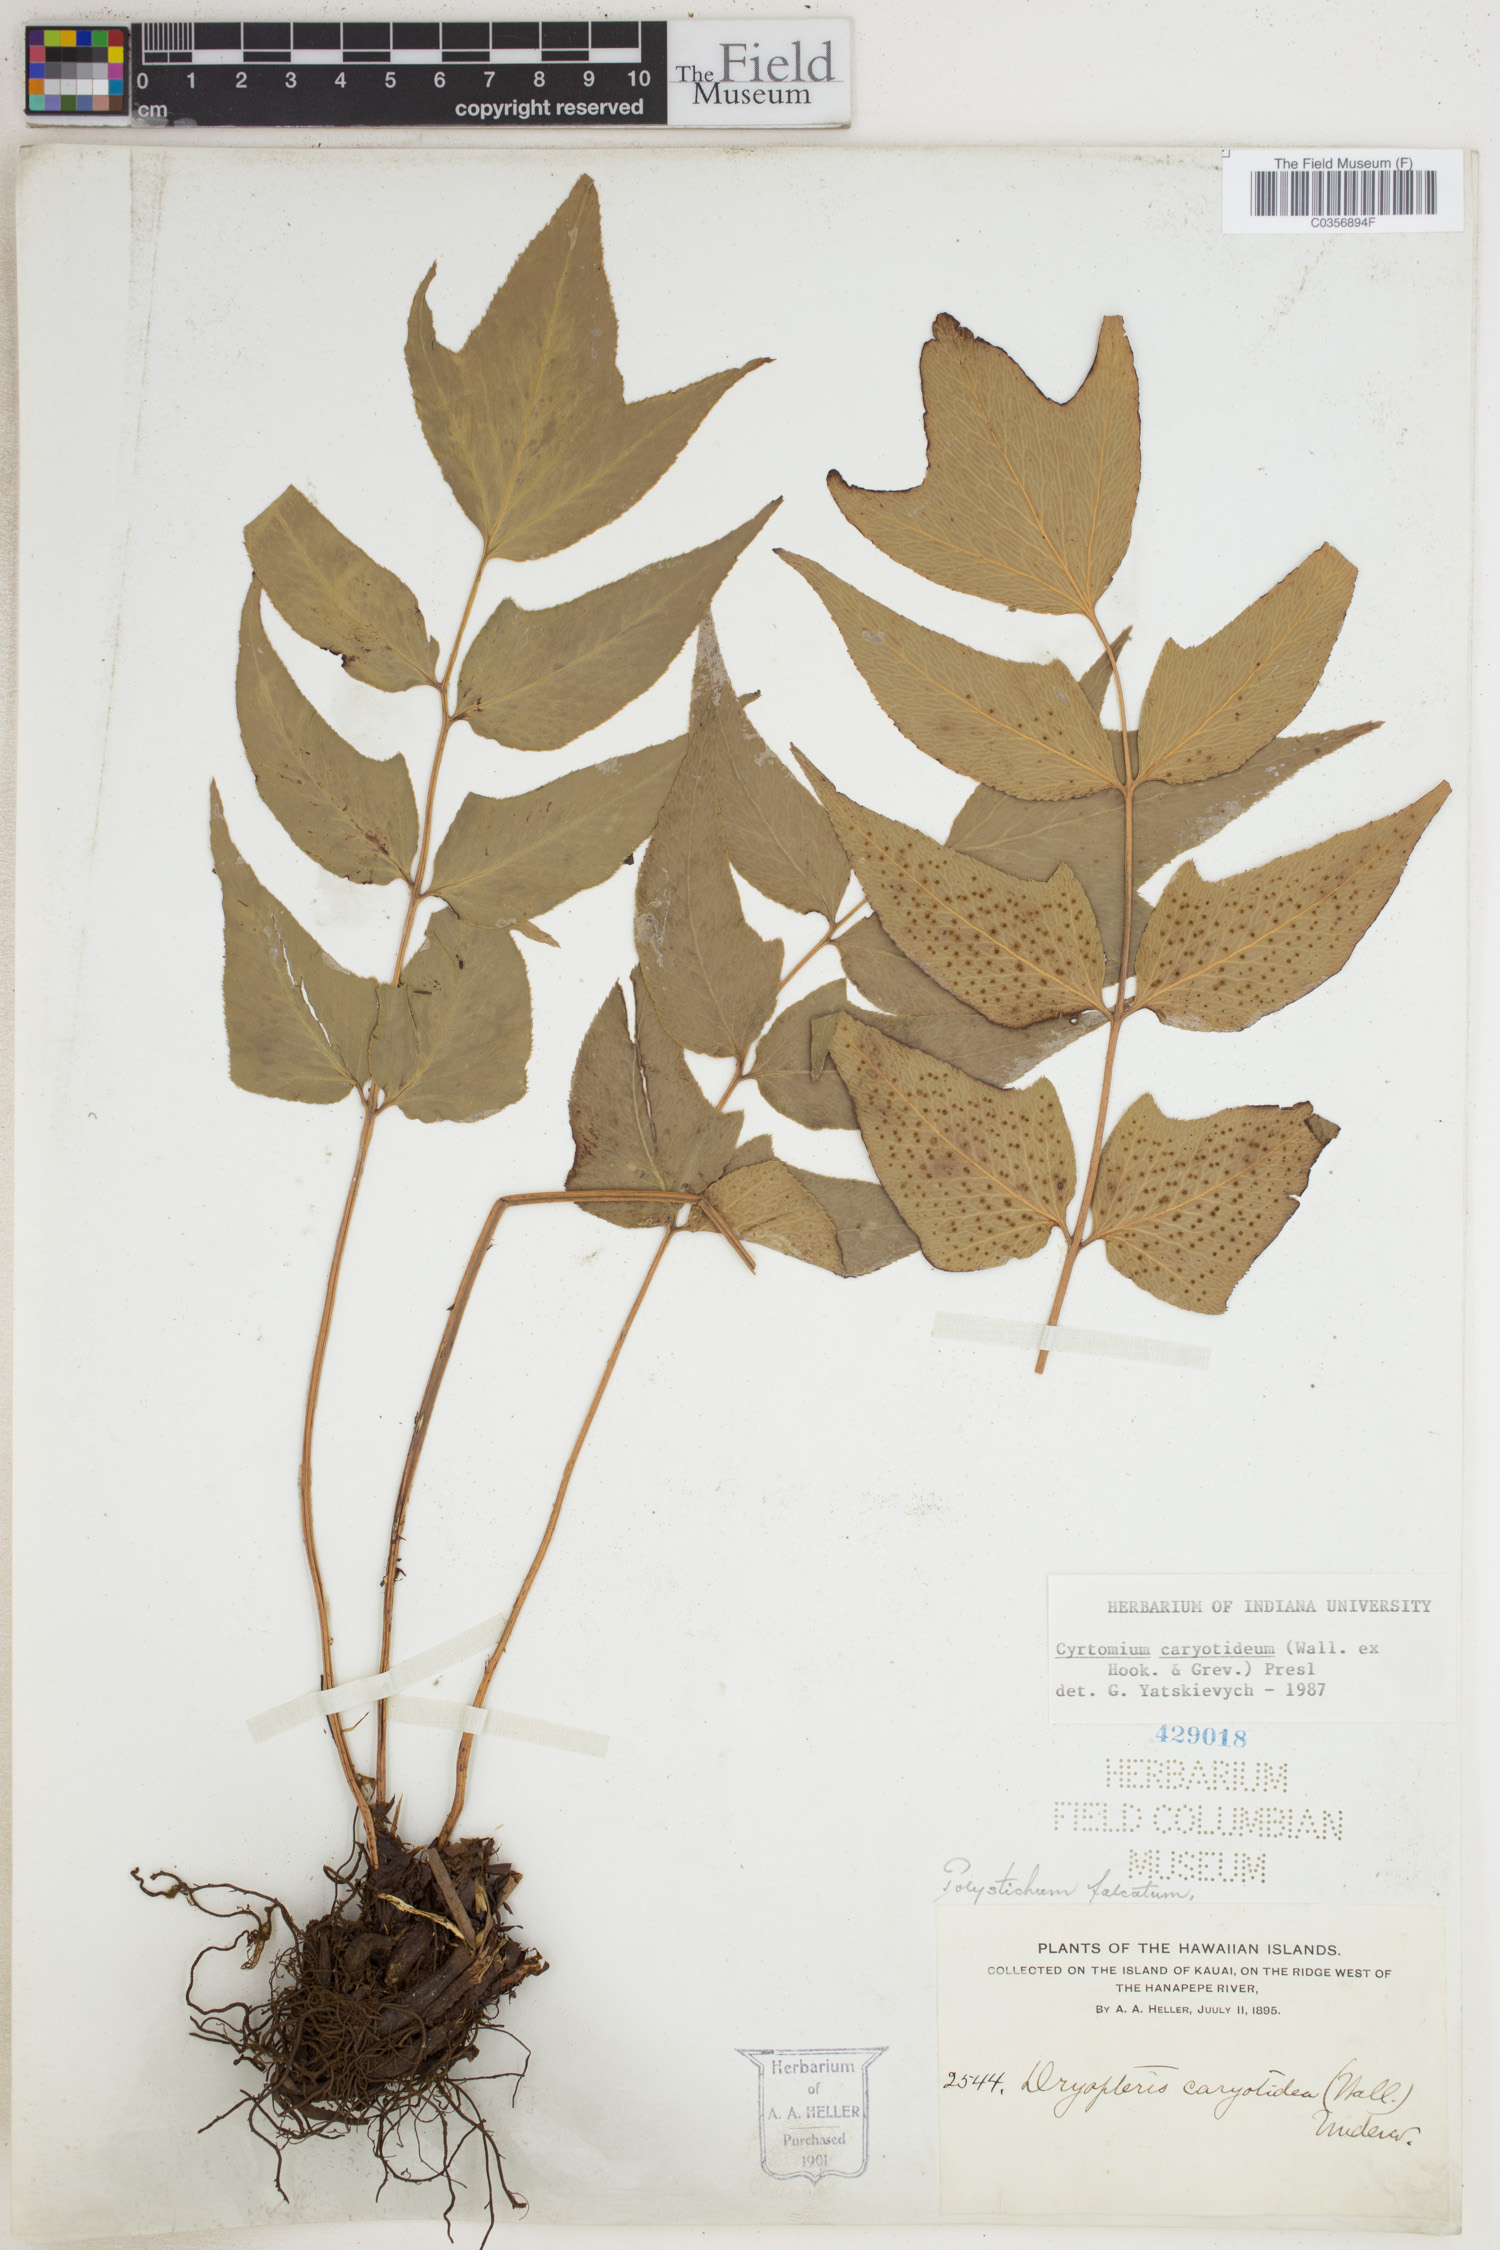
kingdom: Plantae
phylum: Tracheophyta
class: Polypodiopsida
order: Polypodiales
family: Dryopteridaceae
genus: Cyrtomium
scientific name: Cyrtomium caryotideum
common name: Asiatic holly fern
